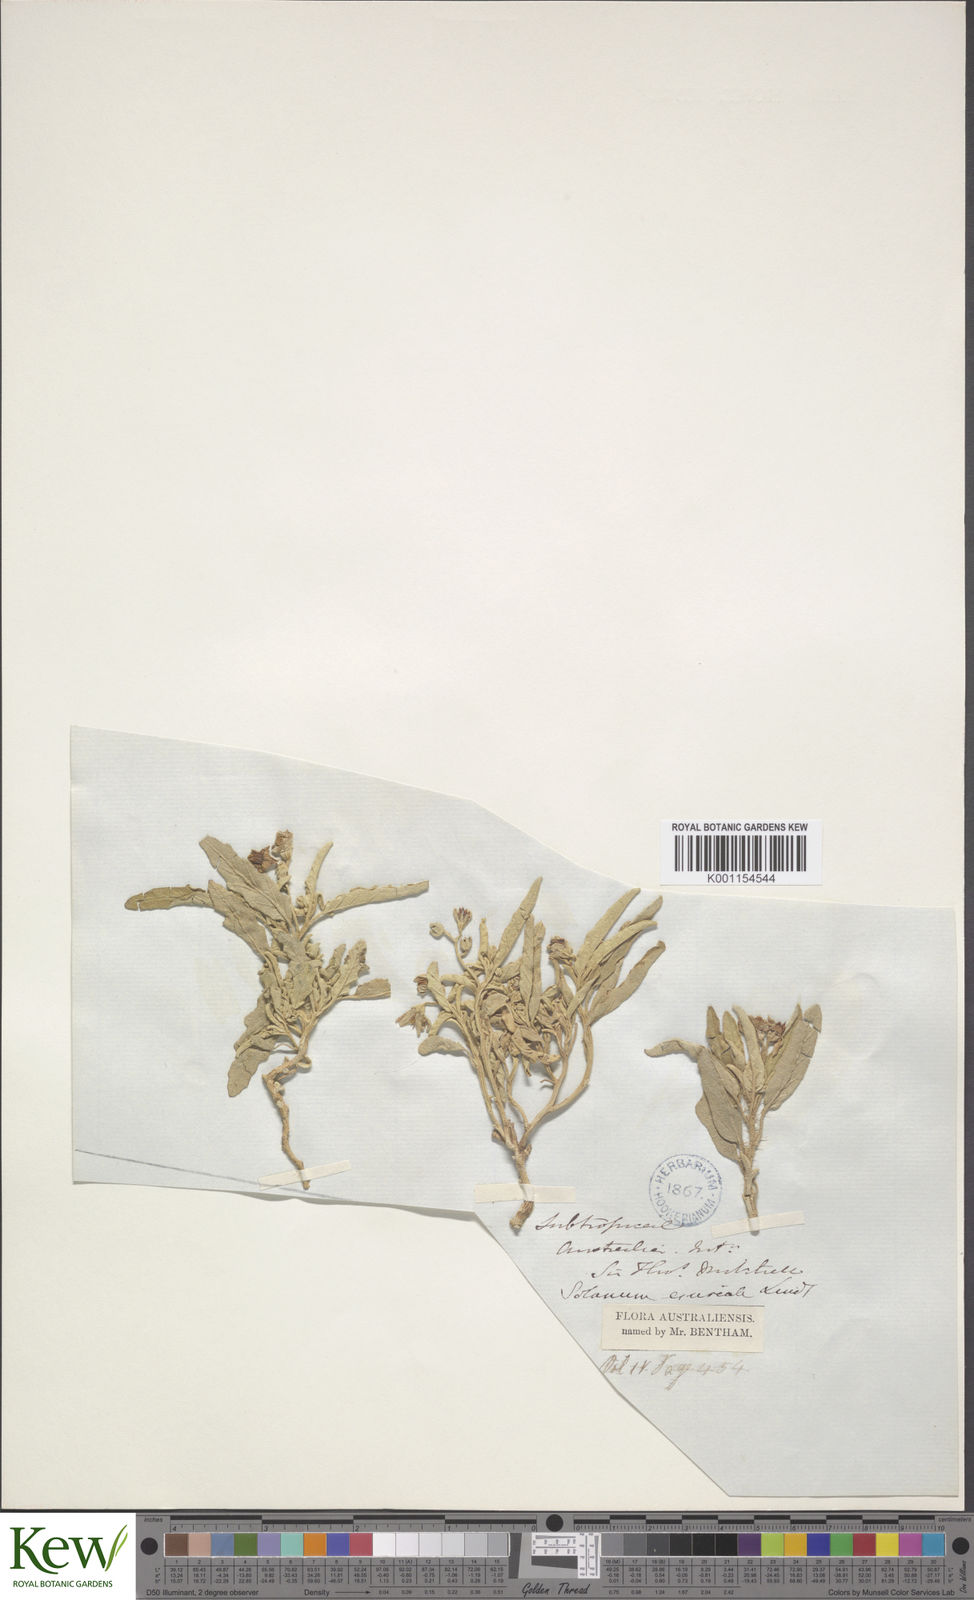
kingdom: Plantae
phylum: Tracheophyta
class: Magnoliopsida
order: Solanales
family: Solanaceae
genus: Solanum
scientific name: Solanum esuriale
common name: Wild tomato
